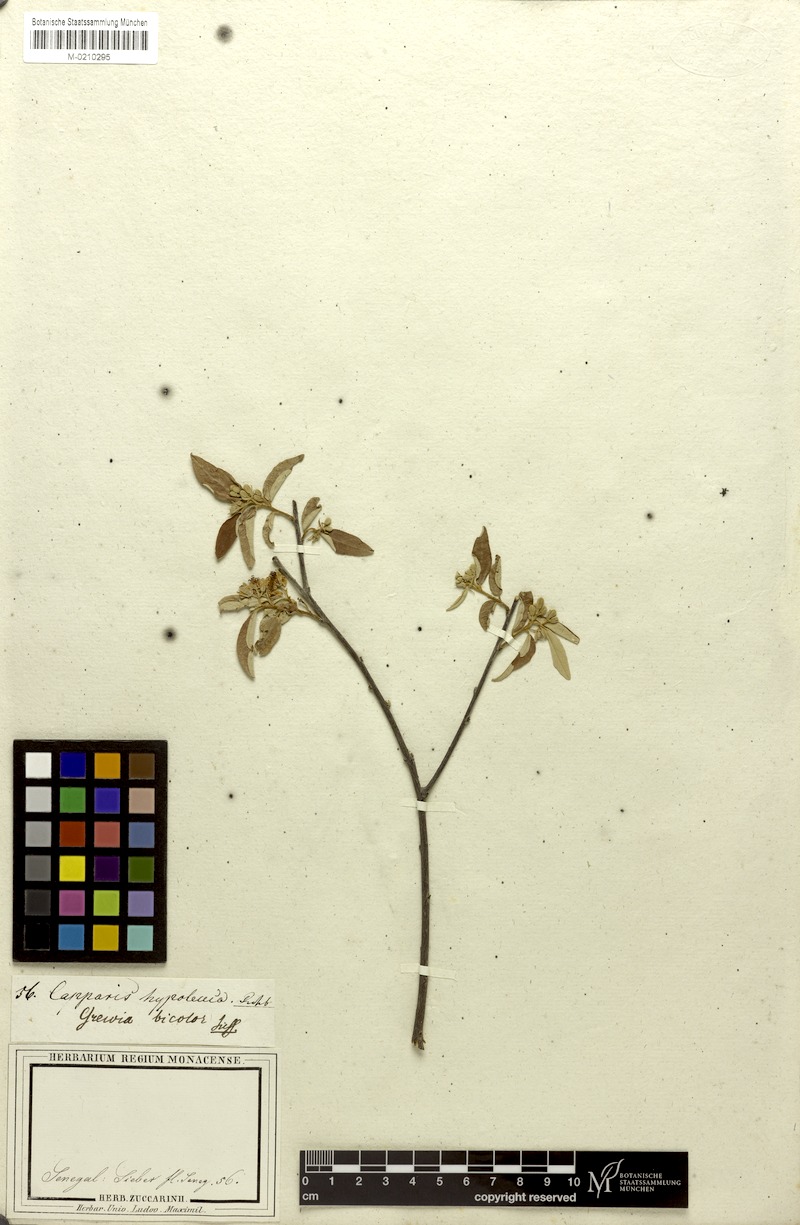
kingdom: Plantae
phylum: Tracheophyta
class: Magnoliopsida
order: Malvales
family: Malvaceae
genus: Grewia
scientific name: Grewia bicolor
